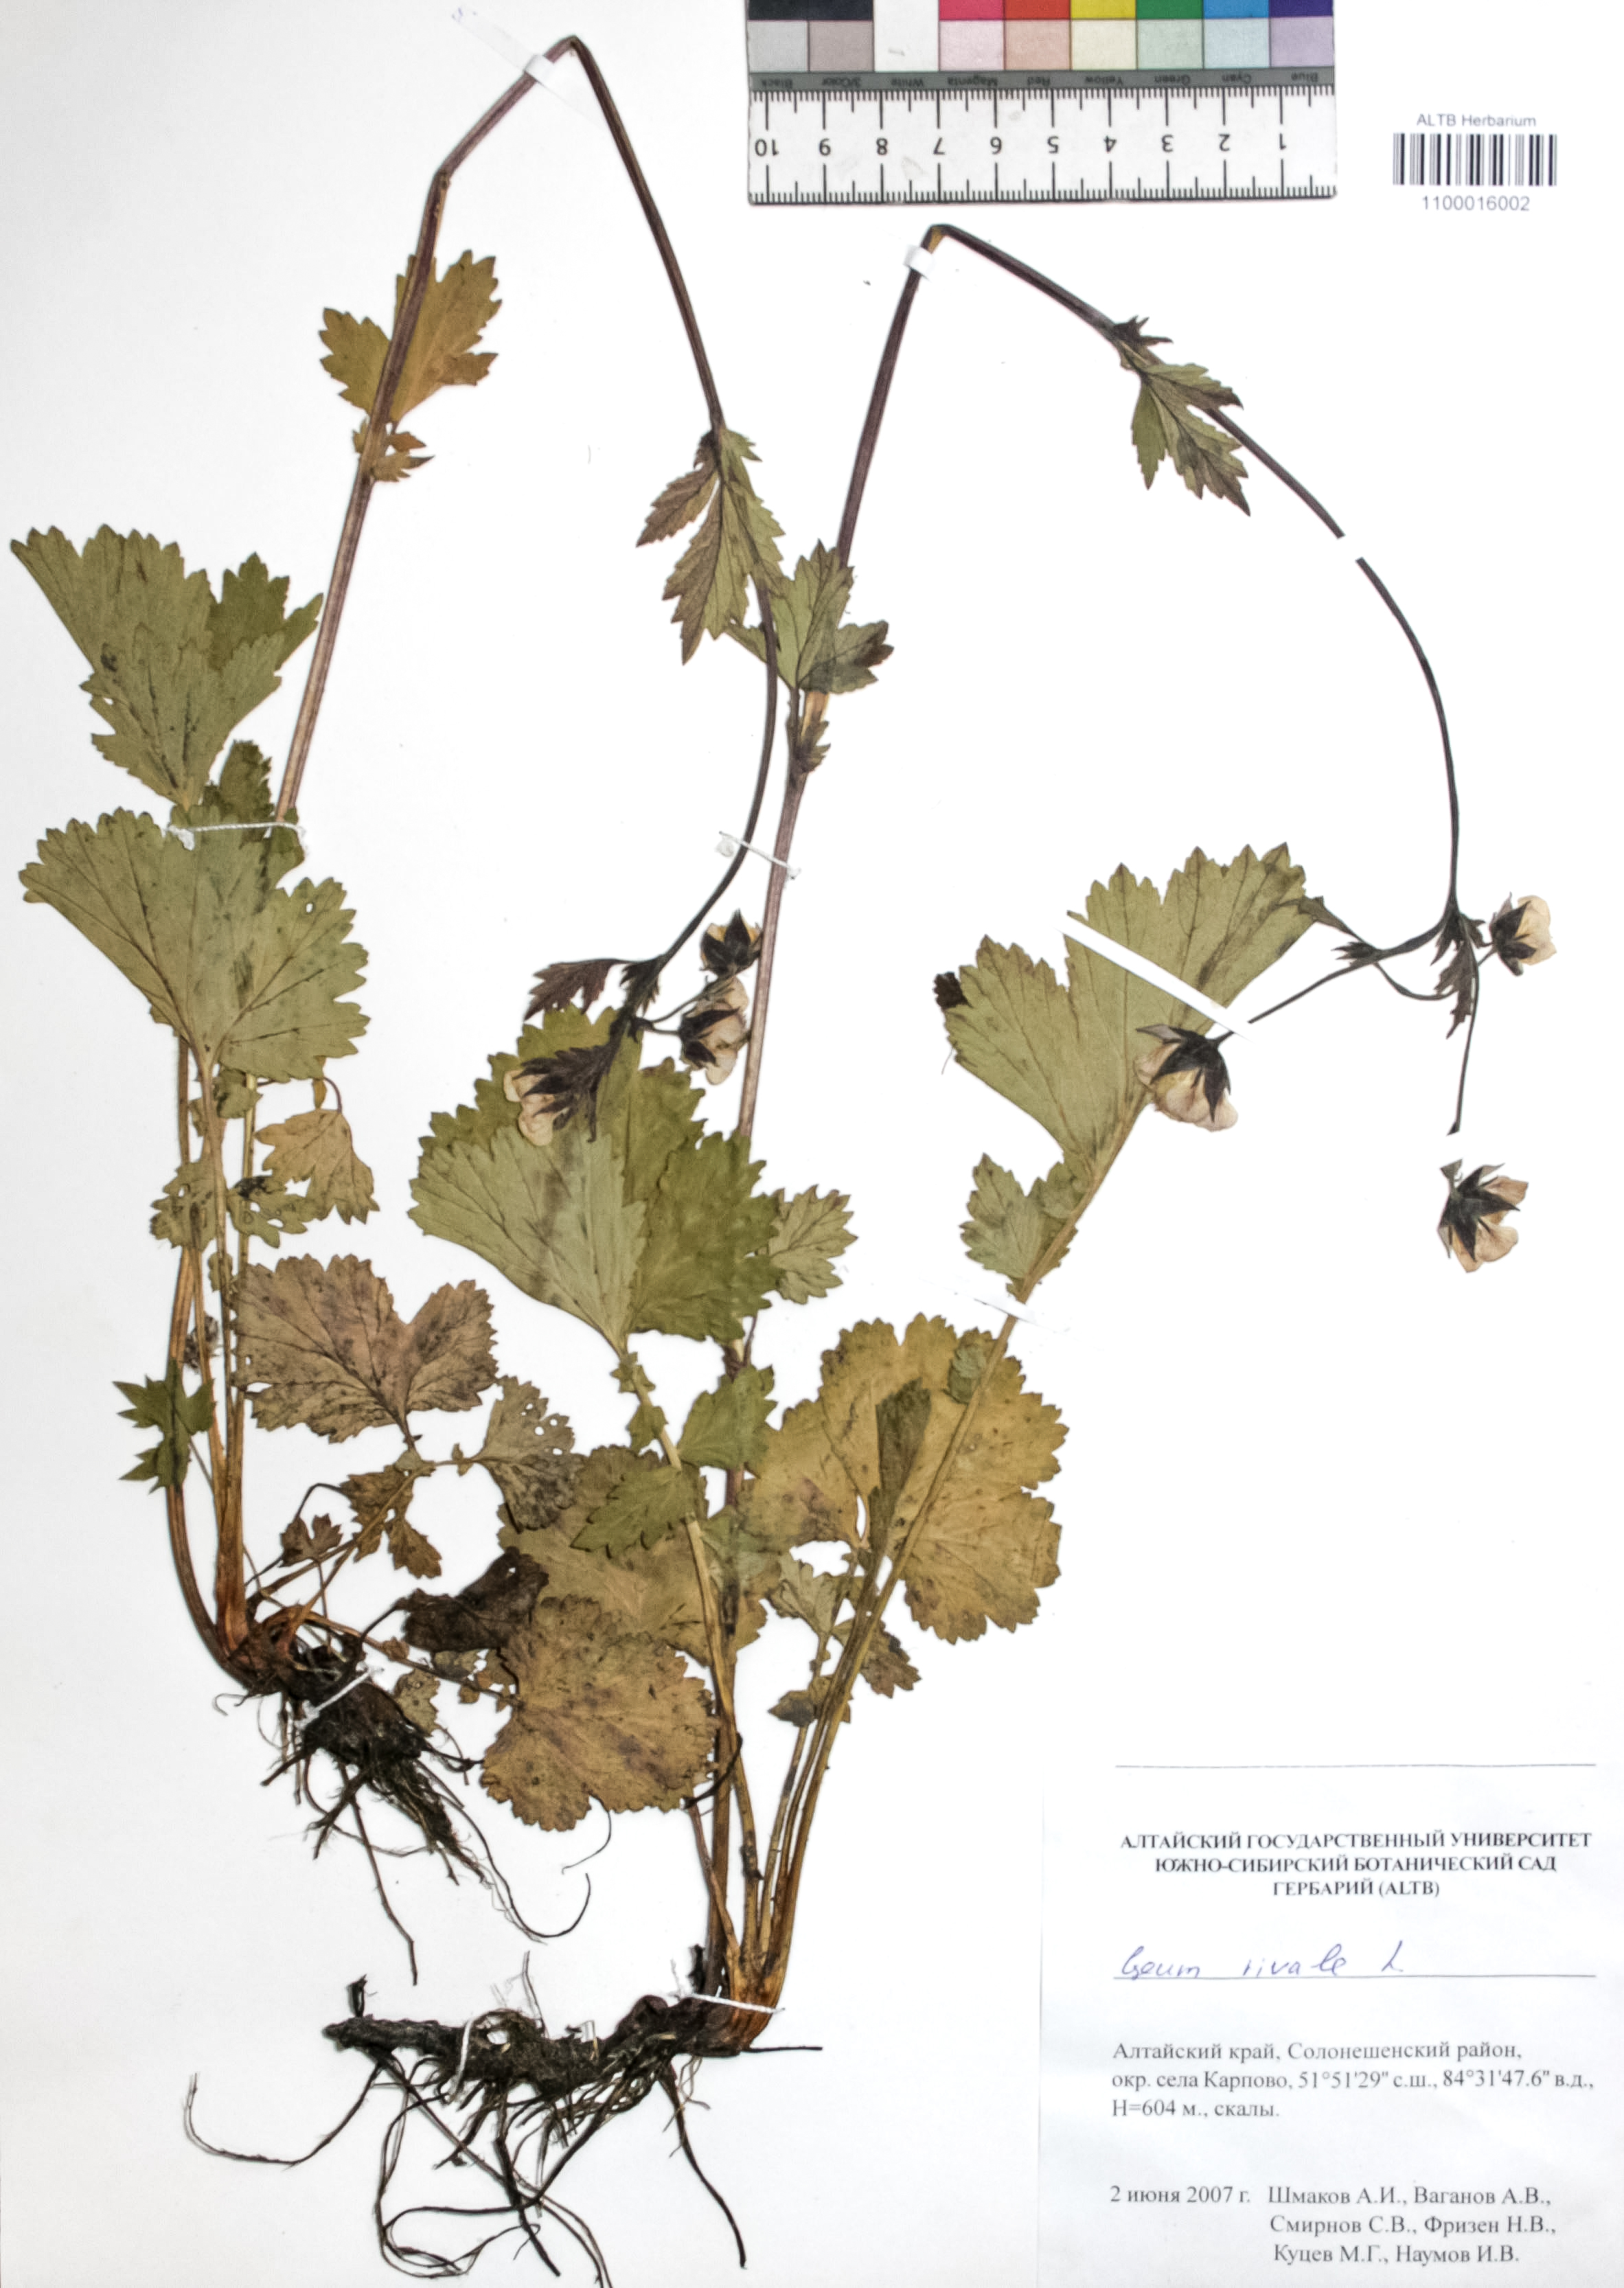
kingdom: Plantae
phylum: Tracheophyta
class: Magnoliopsida
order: Rosales
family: Rosaceae
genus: Geum
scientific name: Geum rivale
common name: Water avens
